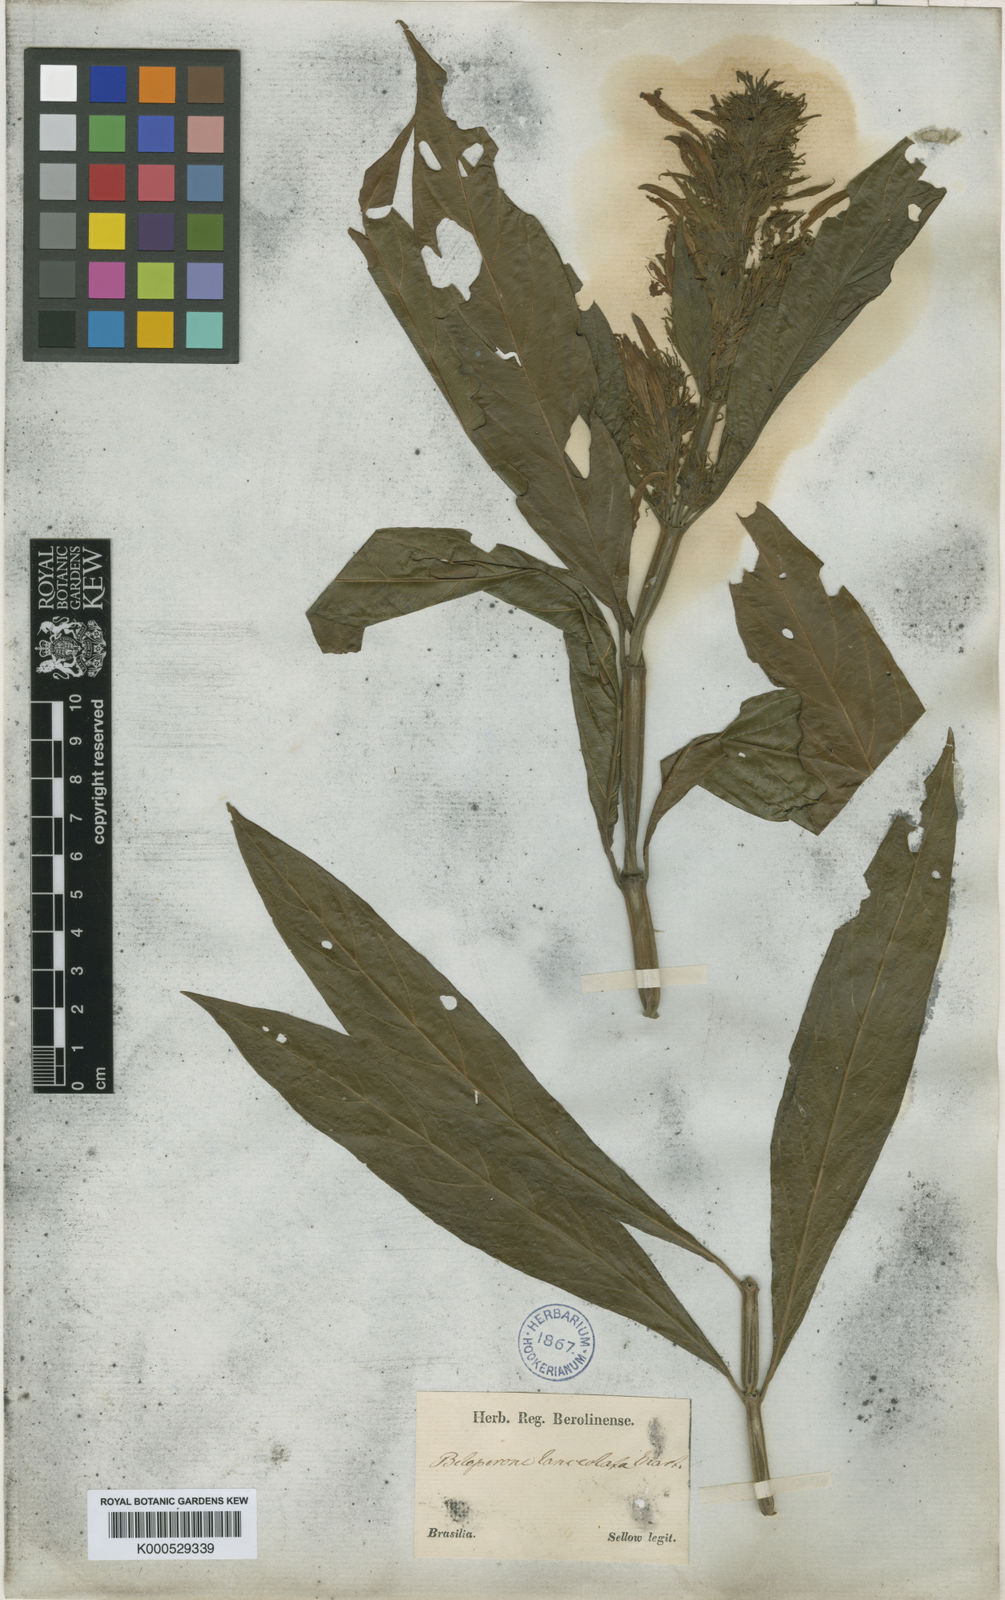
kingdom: Plantae
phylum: Tracheophyta
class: Magnoliopsida
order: Lamiales
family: Acanthaceae
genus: Justicia
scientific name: Justicia minensis
